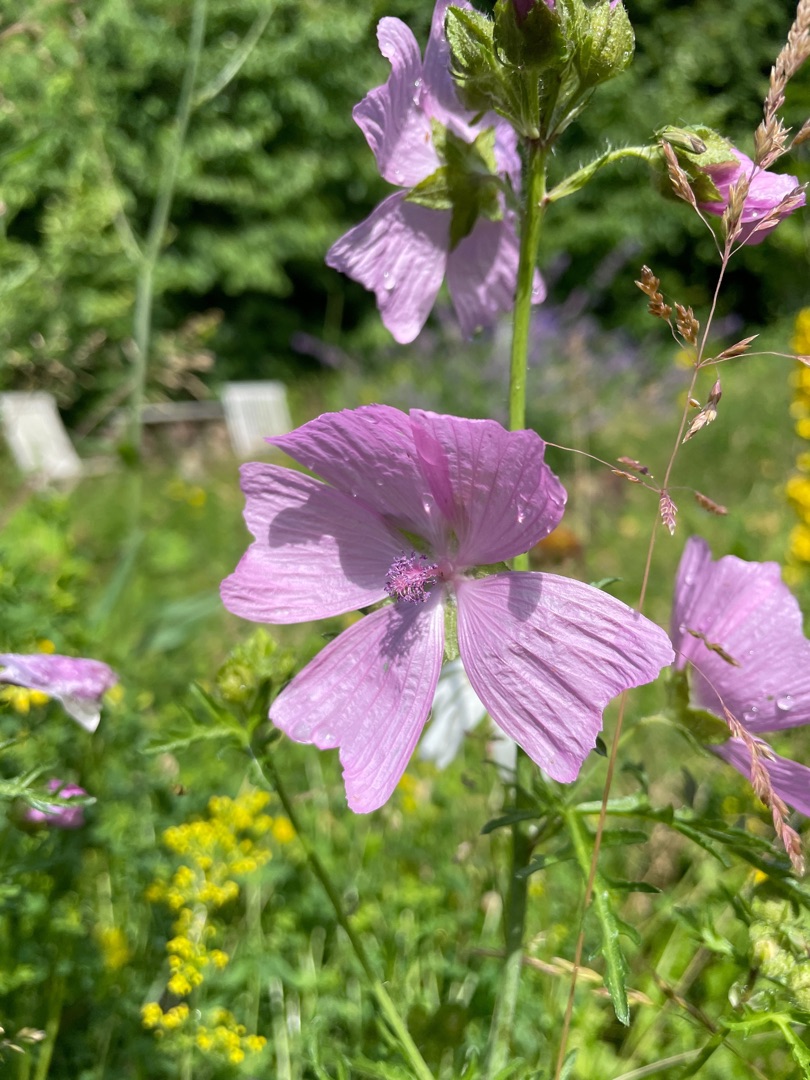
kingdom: Plantae
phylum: Tracheophyta
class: Magnoliopsida
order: Malvales
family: Malvaceae
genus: Malva
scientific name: Malva moschata
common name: Moskus-katost
